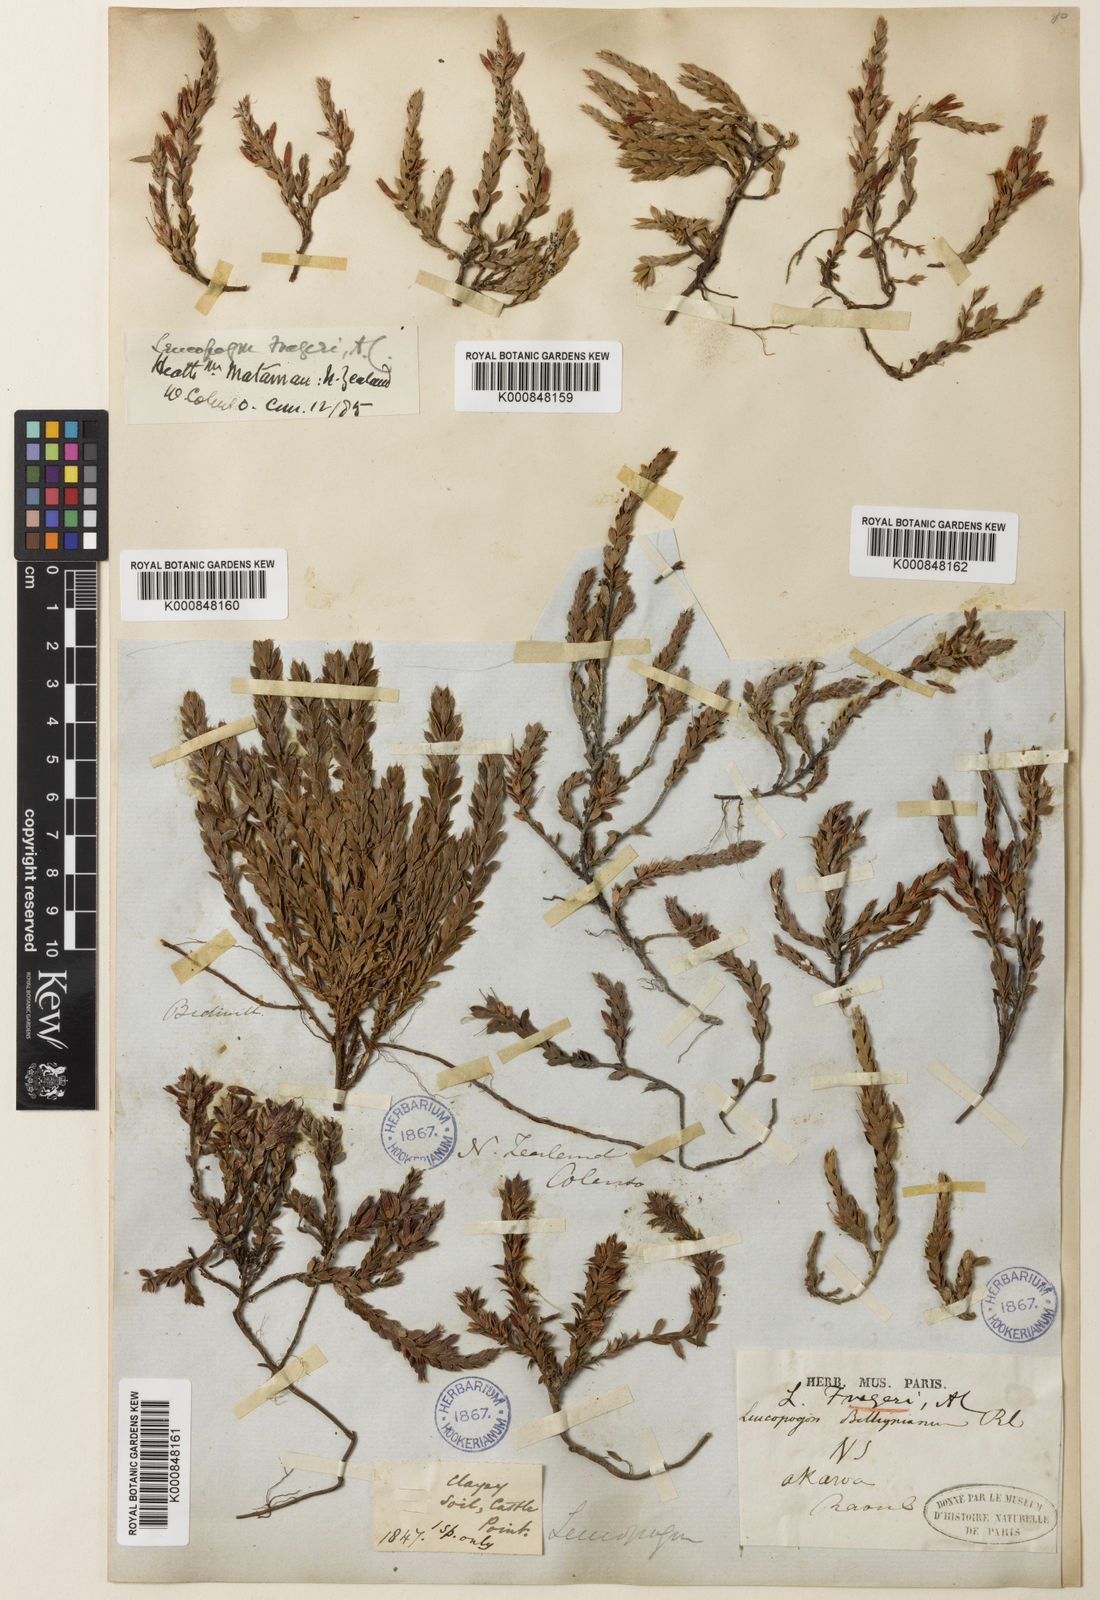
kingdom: Plantae
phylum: Tracheophyta
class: Magnoliopsida
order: Ericales
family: Ericaceae
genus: Styphelia
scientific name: Styphelia nesophila
